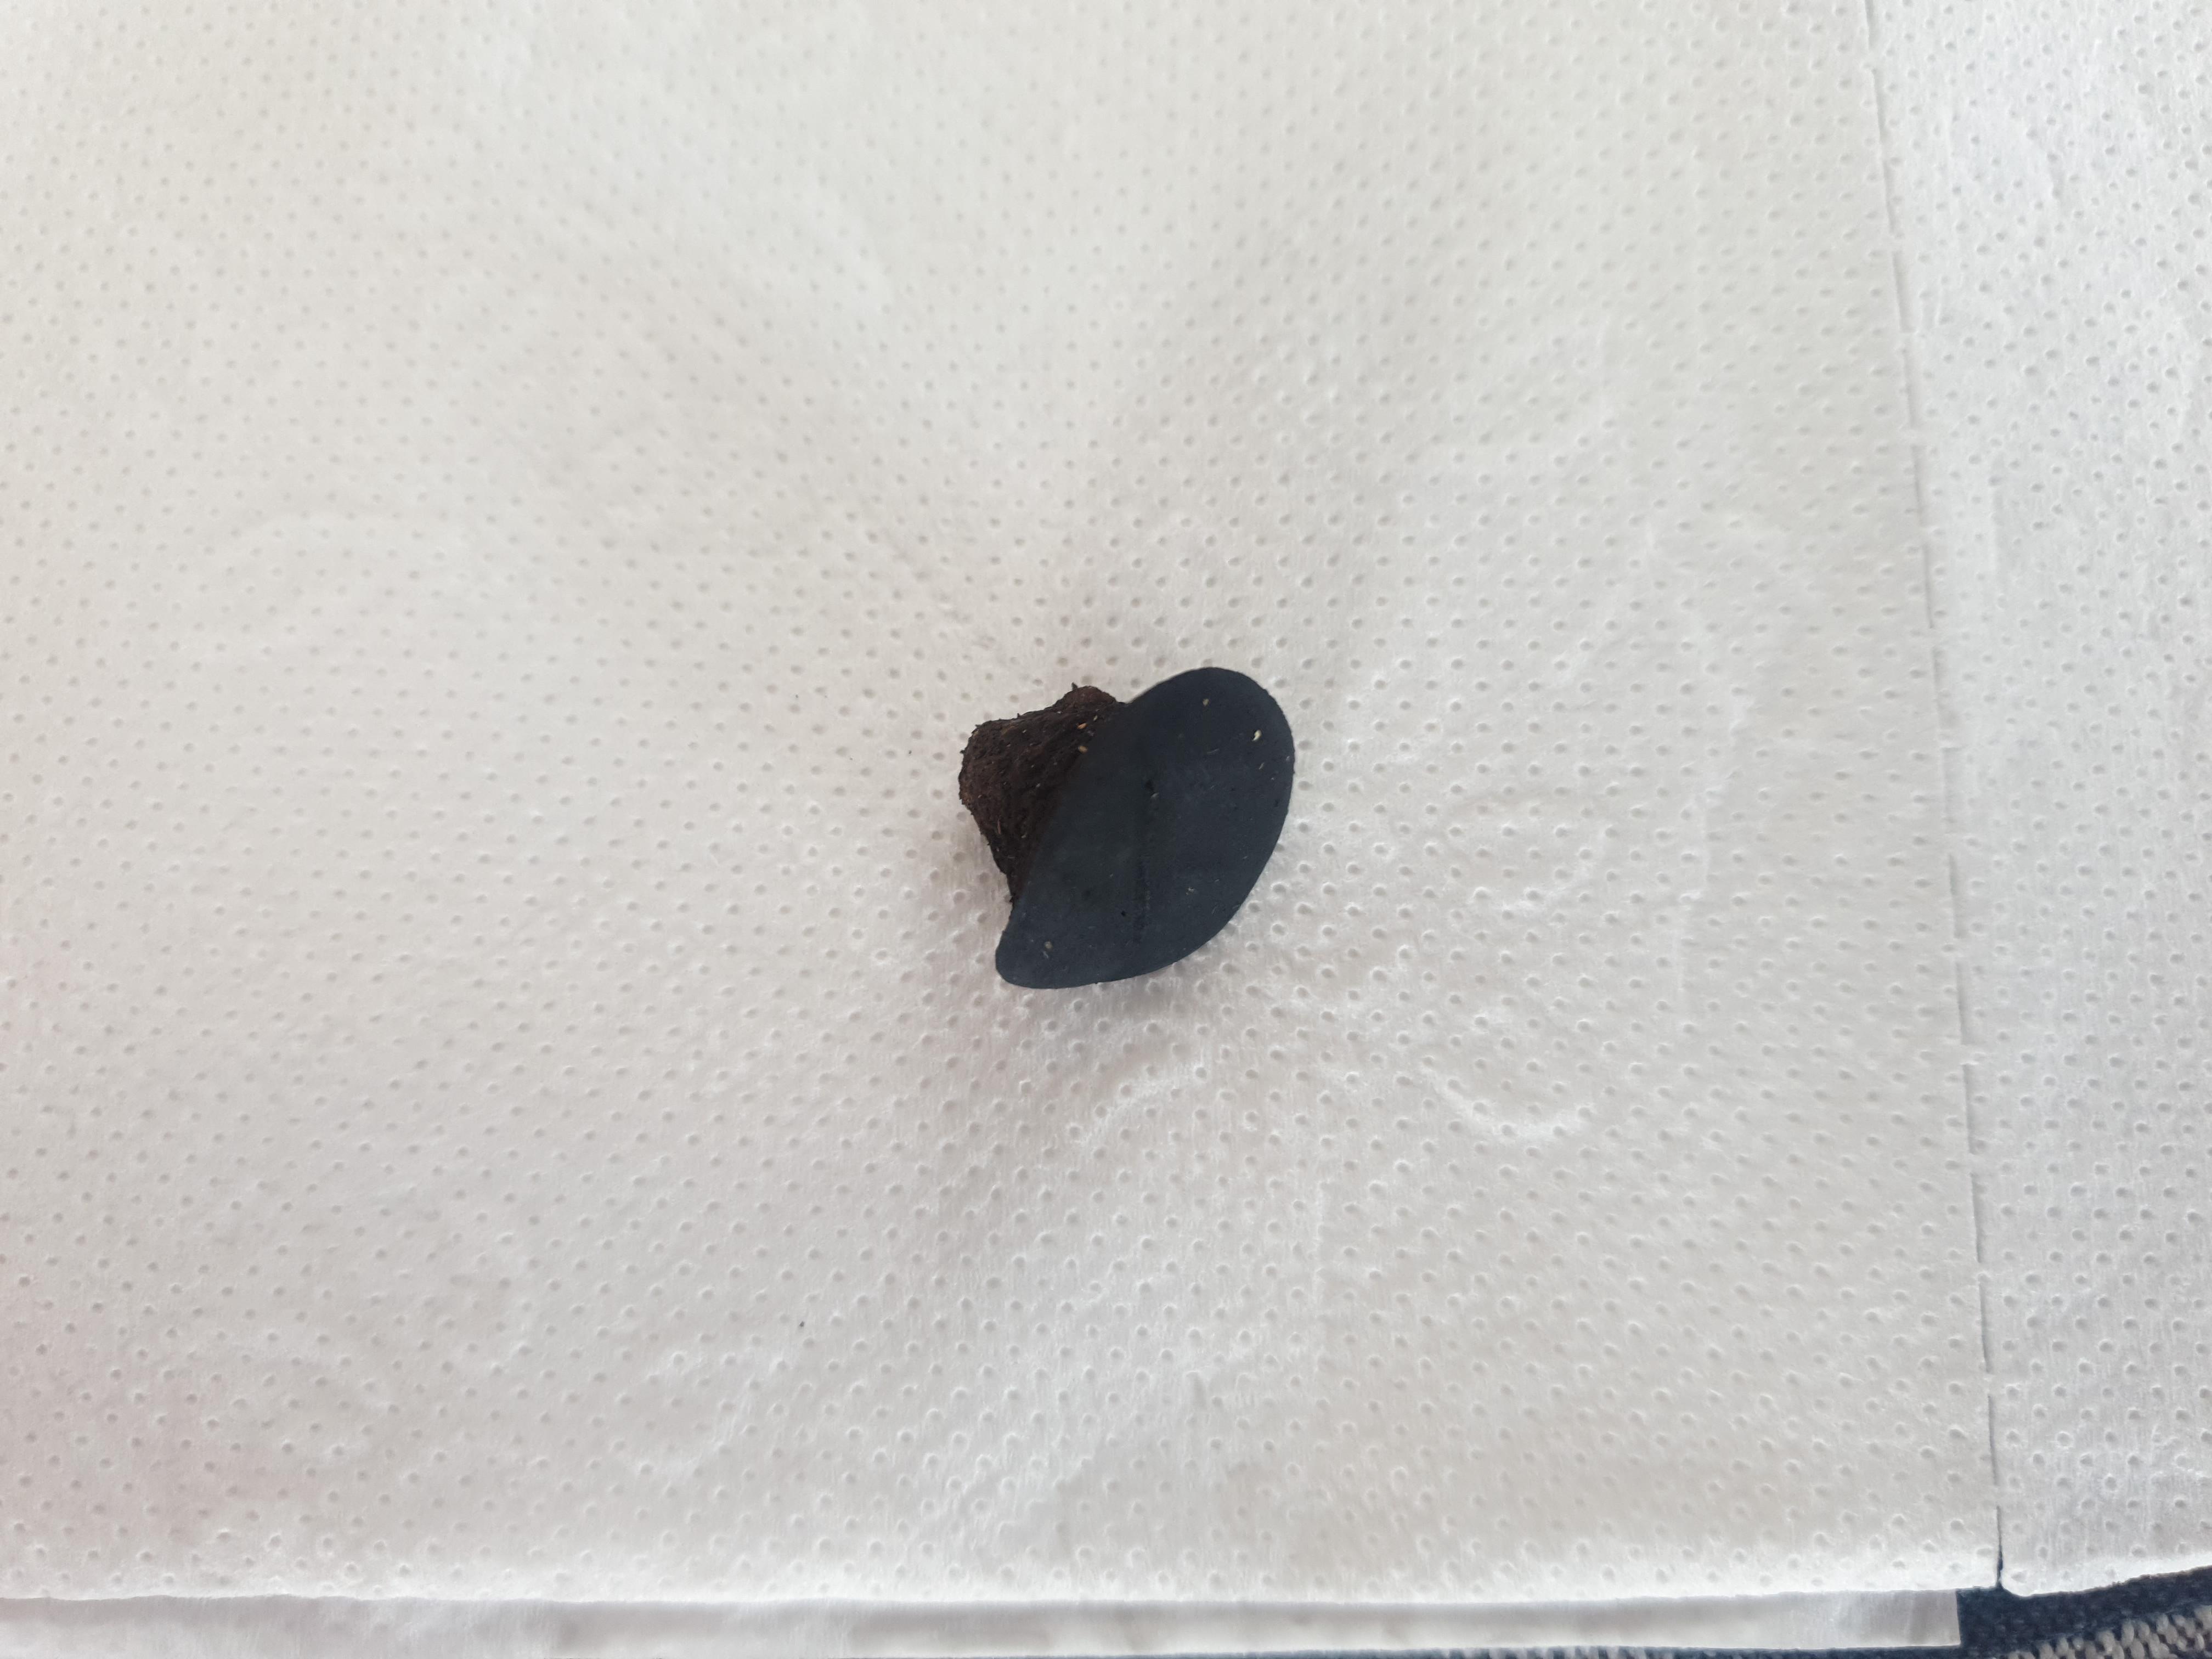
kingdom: Fungi
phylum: Ascomycota
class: Leotiomycetes
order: Phacidiales
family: Phacidiaceae
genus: Bulgaria
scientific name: Bulgaria inquinans
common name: afsmittende topsvamp
